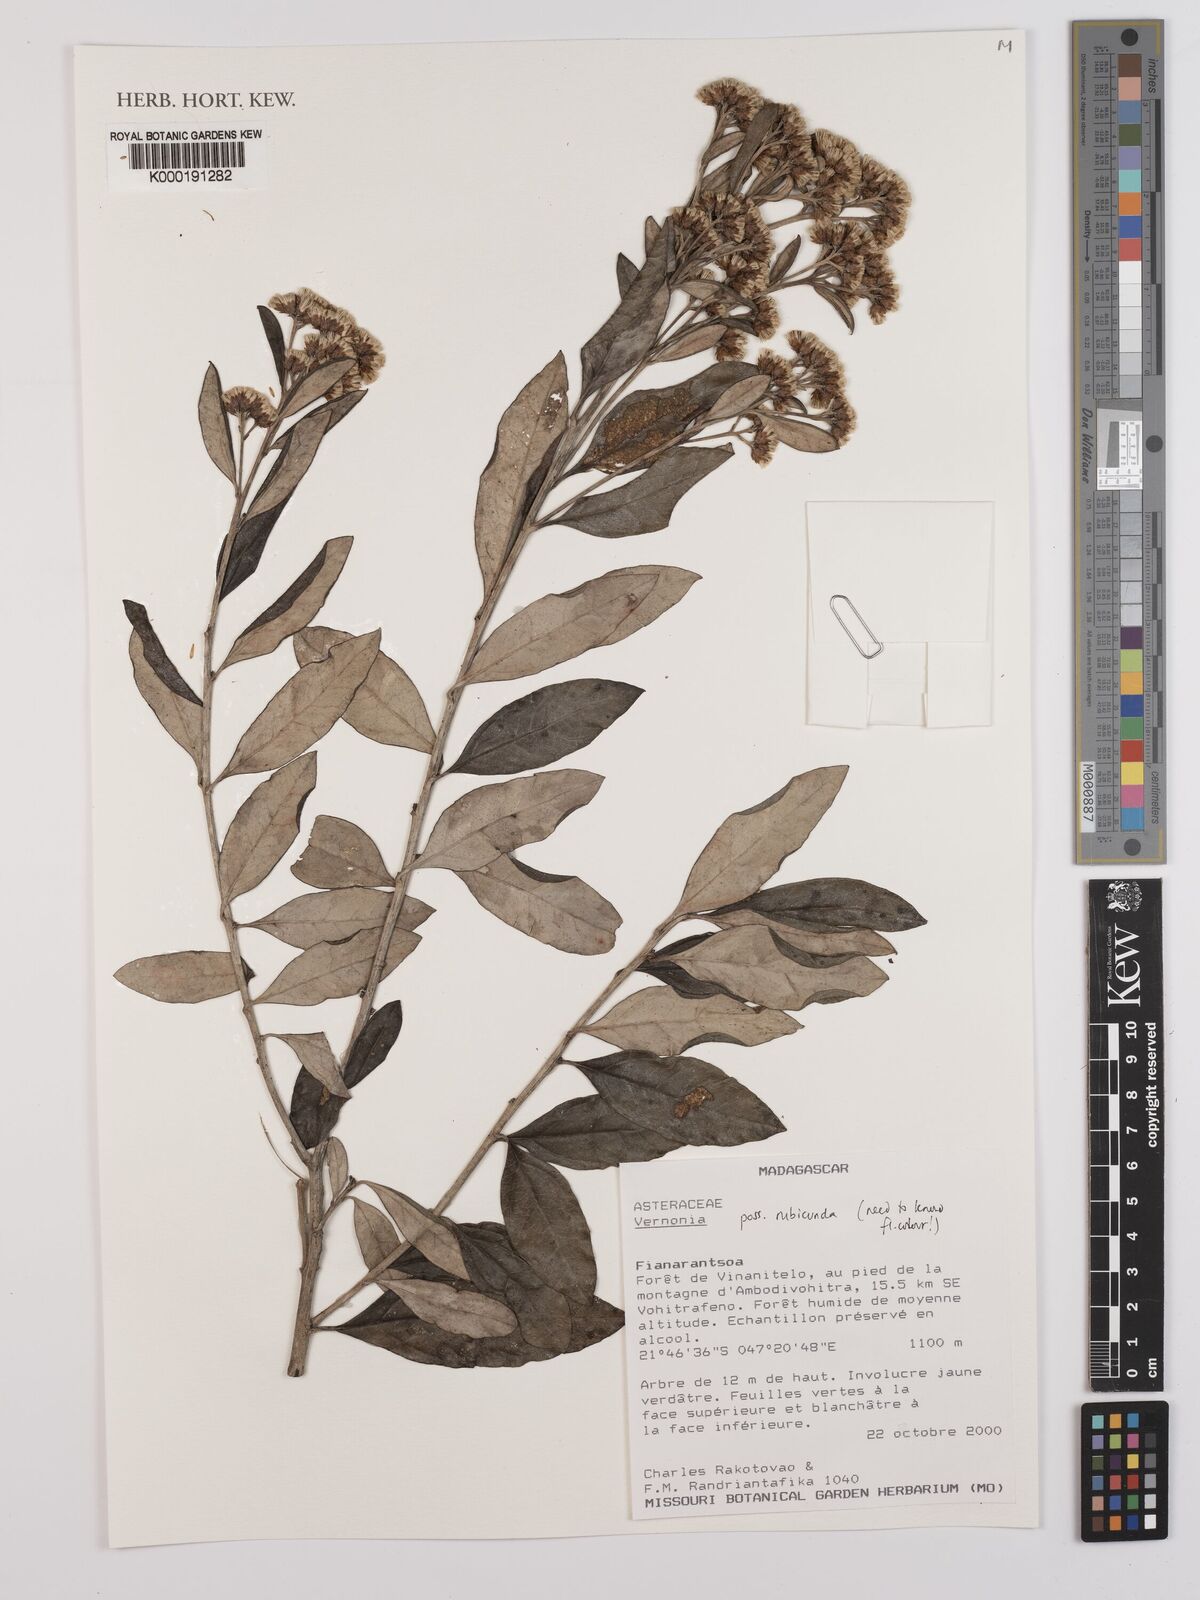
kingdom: Plantae
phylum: Tracheophyta
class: Magnoliopsida
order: Asterales
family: Asteraceae
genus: Jeffreycia
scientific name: Jeffreycia hildebrandtii
